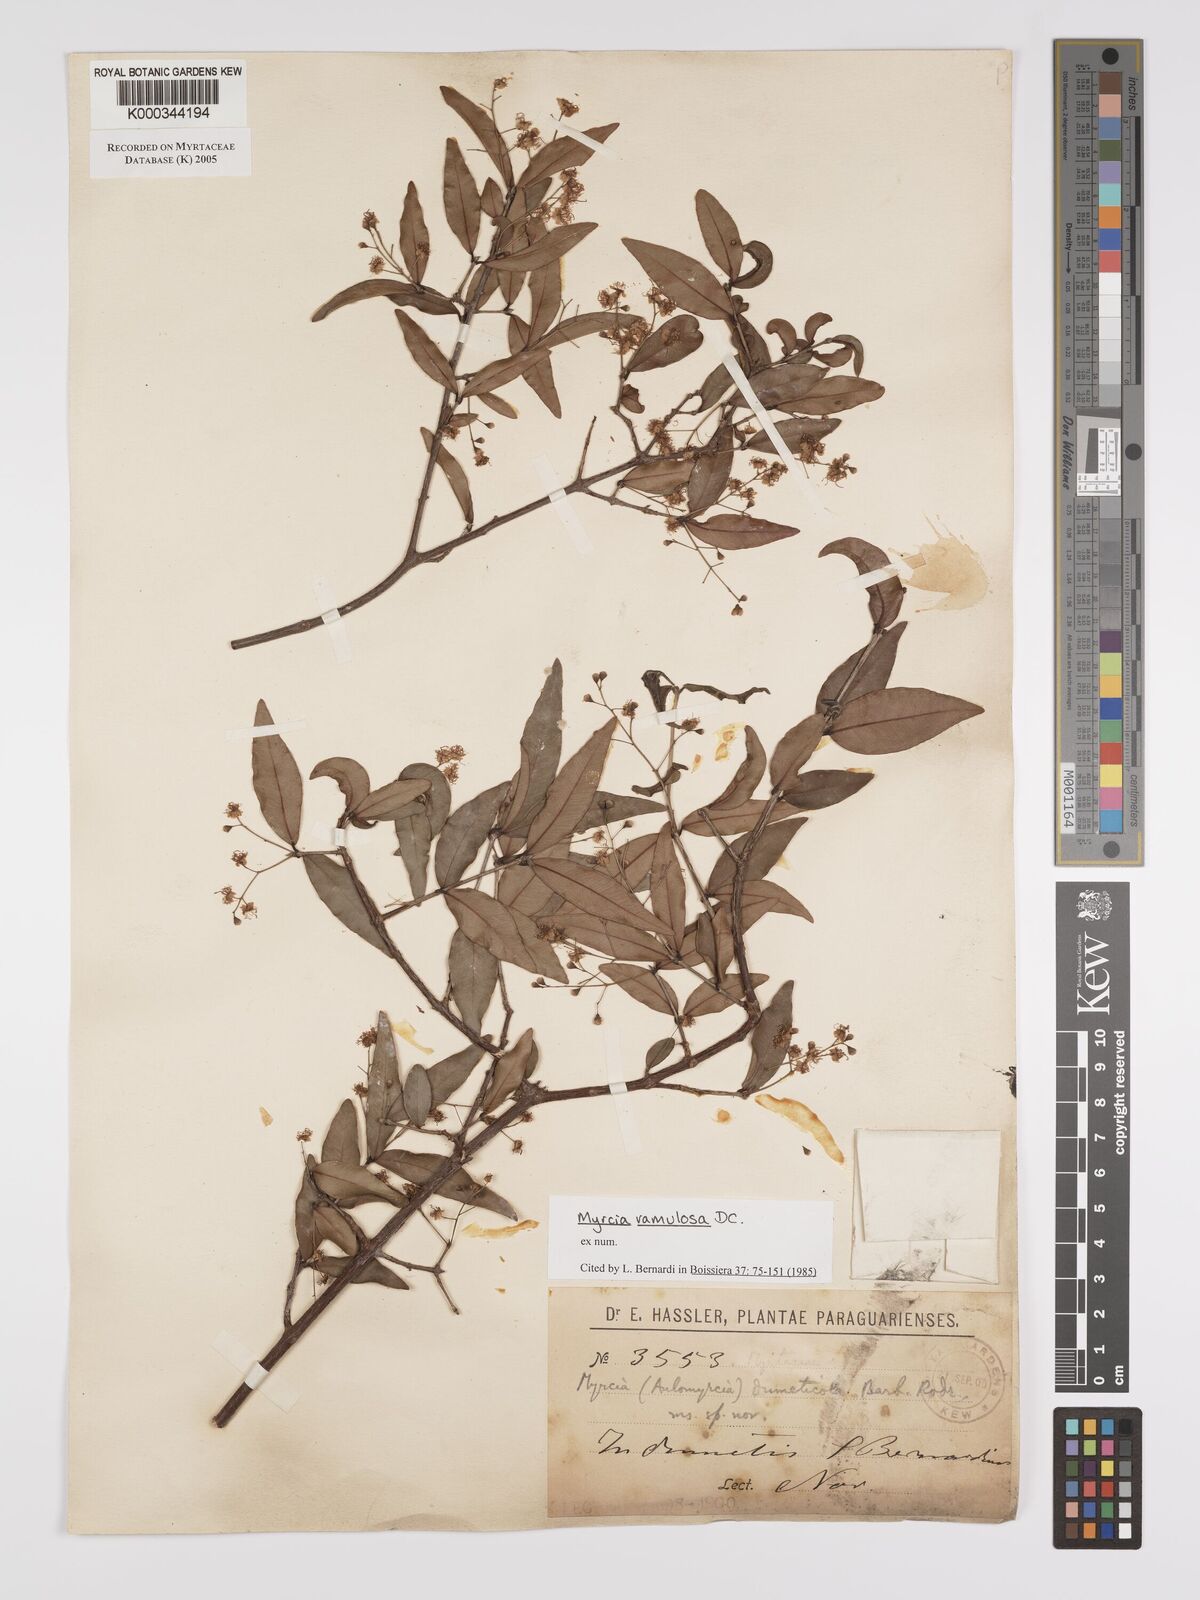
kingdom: Plantae
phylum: Tracheophyta
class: Magnoliopsida
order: Myrtales
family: Myrtaceae
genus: Myrcia
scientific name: Myrcia selloi
